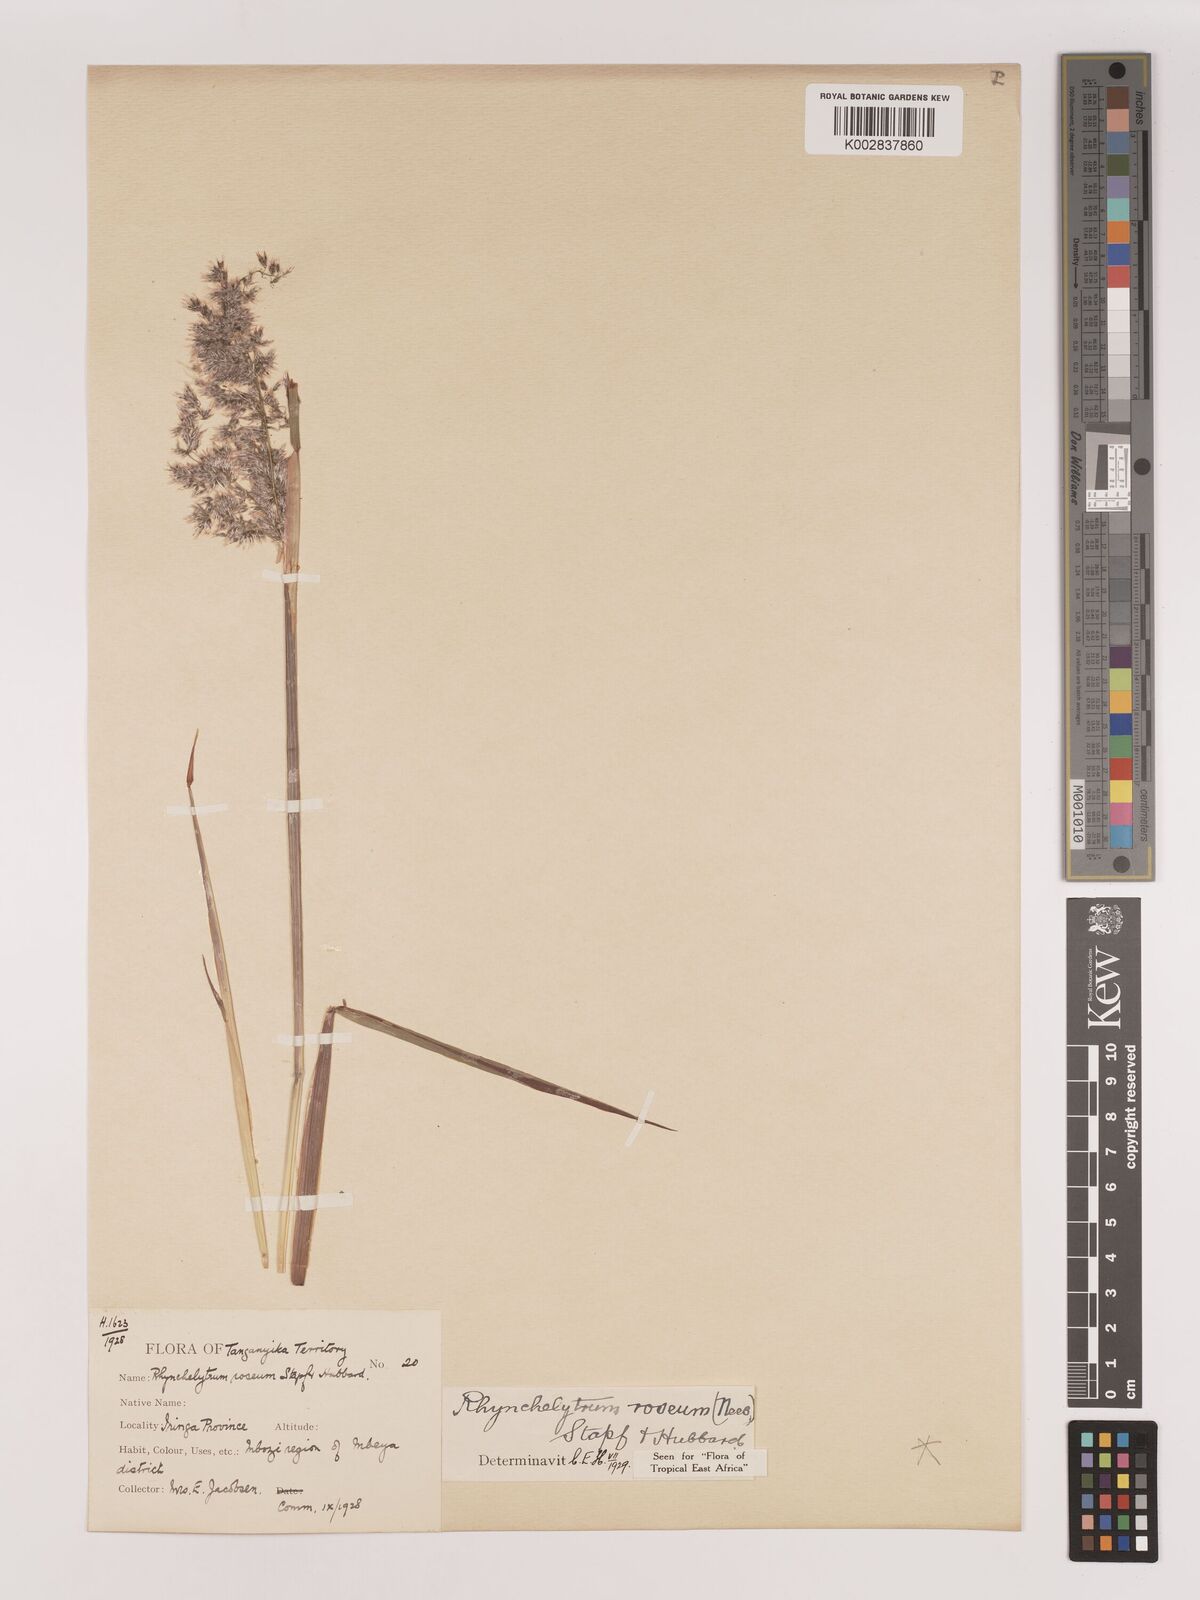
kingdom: Plantae
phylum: Tracheophyta
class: Liliopsida
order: Poales
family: Poaceae
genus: Melinis
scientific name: Melinis repens
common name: Rose natal grass
